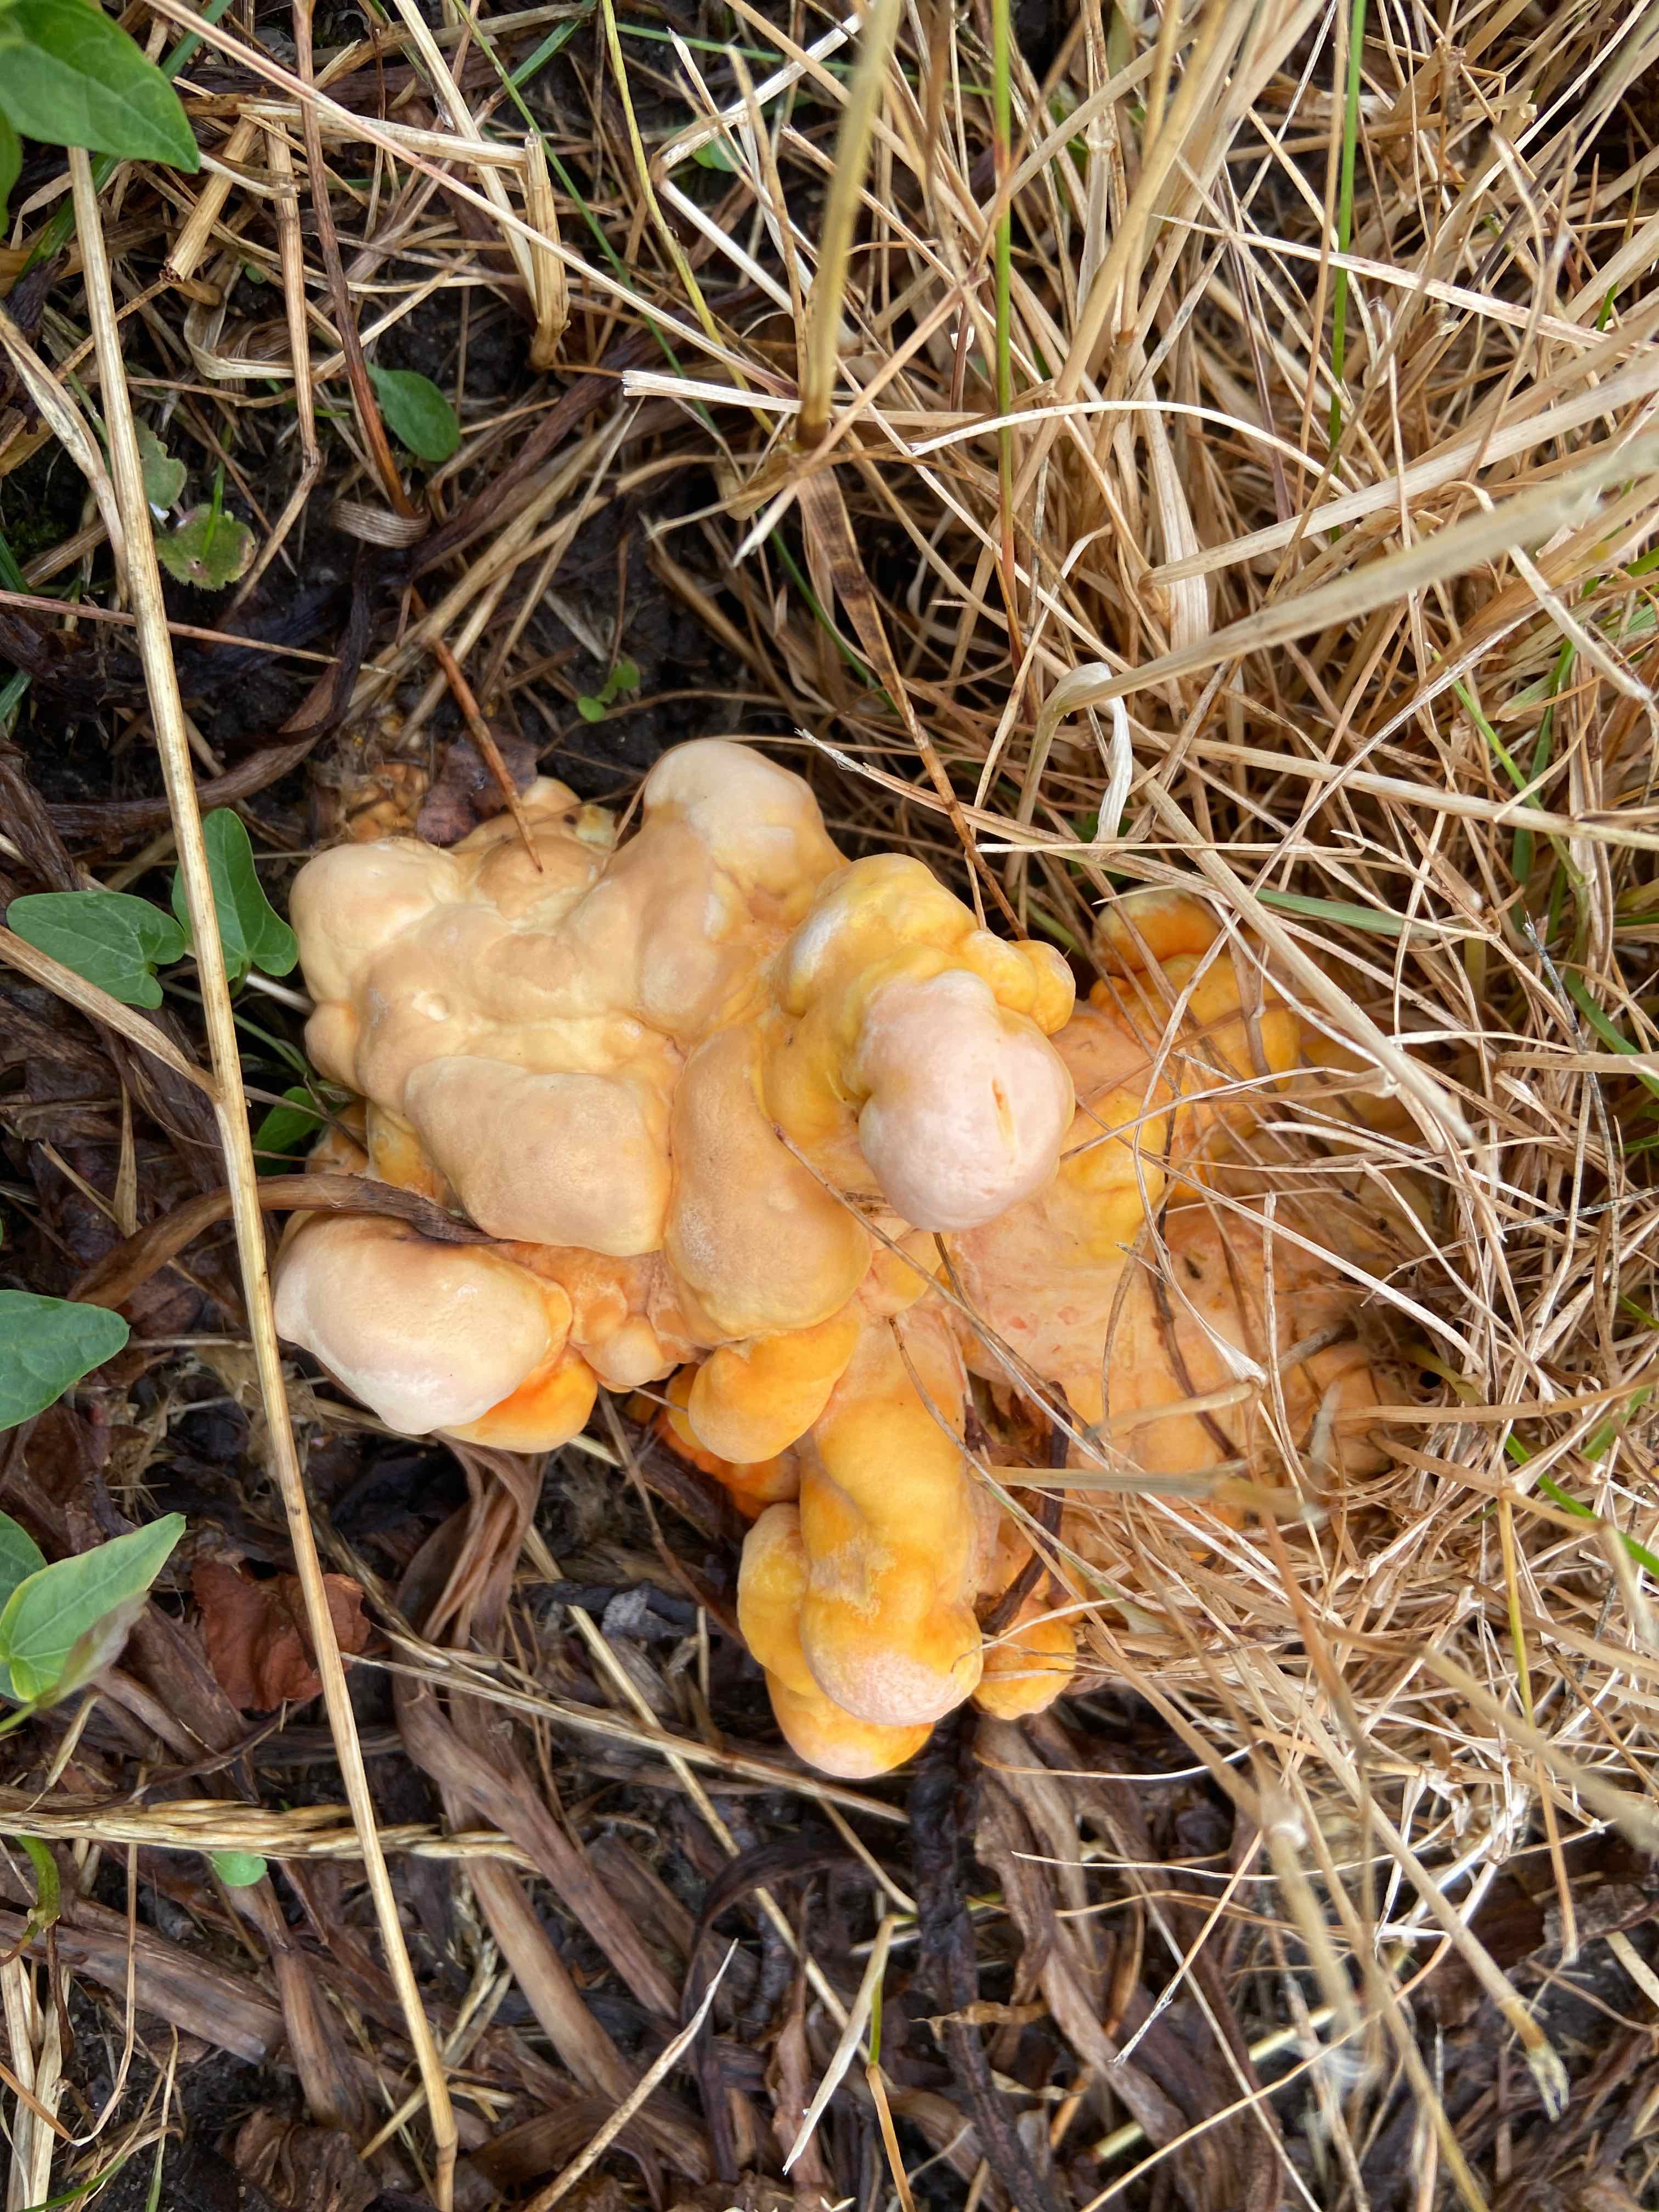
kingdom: Fungi
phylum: Basidiomycota
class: Agaricomycetes
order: Polyporales
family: Polyporaceae
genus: Ganoderma
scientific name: Ganoderma lucidum
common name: skinnende lakporesvamp
